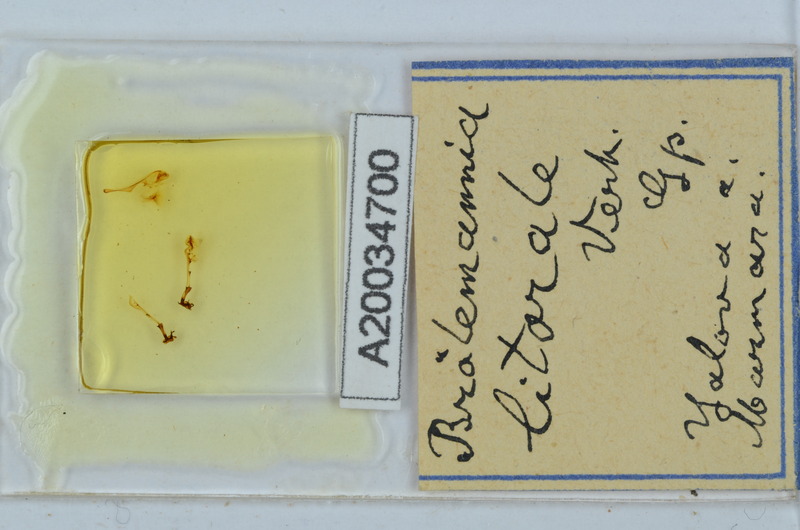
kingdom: Animalia
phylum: Arthropoda
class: Diplopoda
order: Callipodida
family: Schizopetalidae
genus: Eurygyrus
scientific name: Eurygyrus
